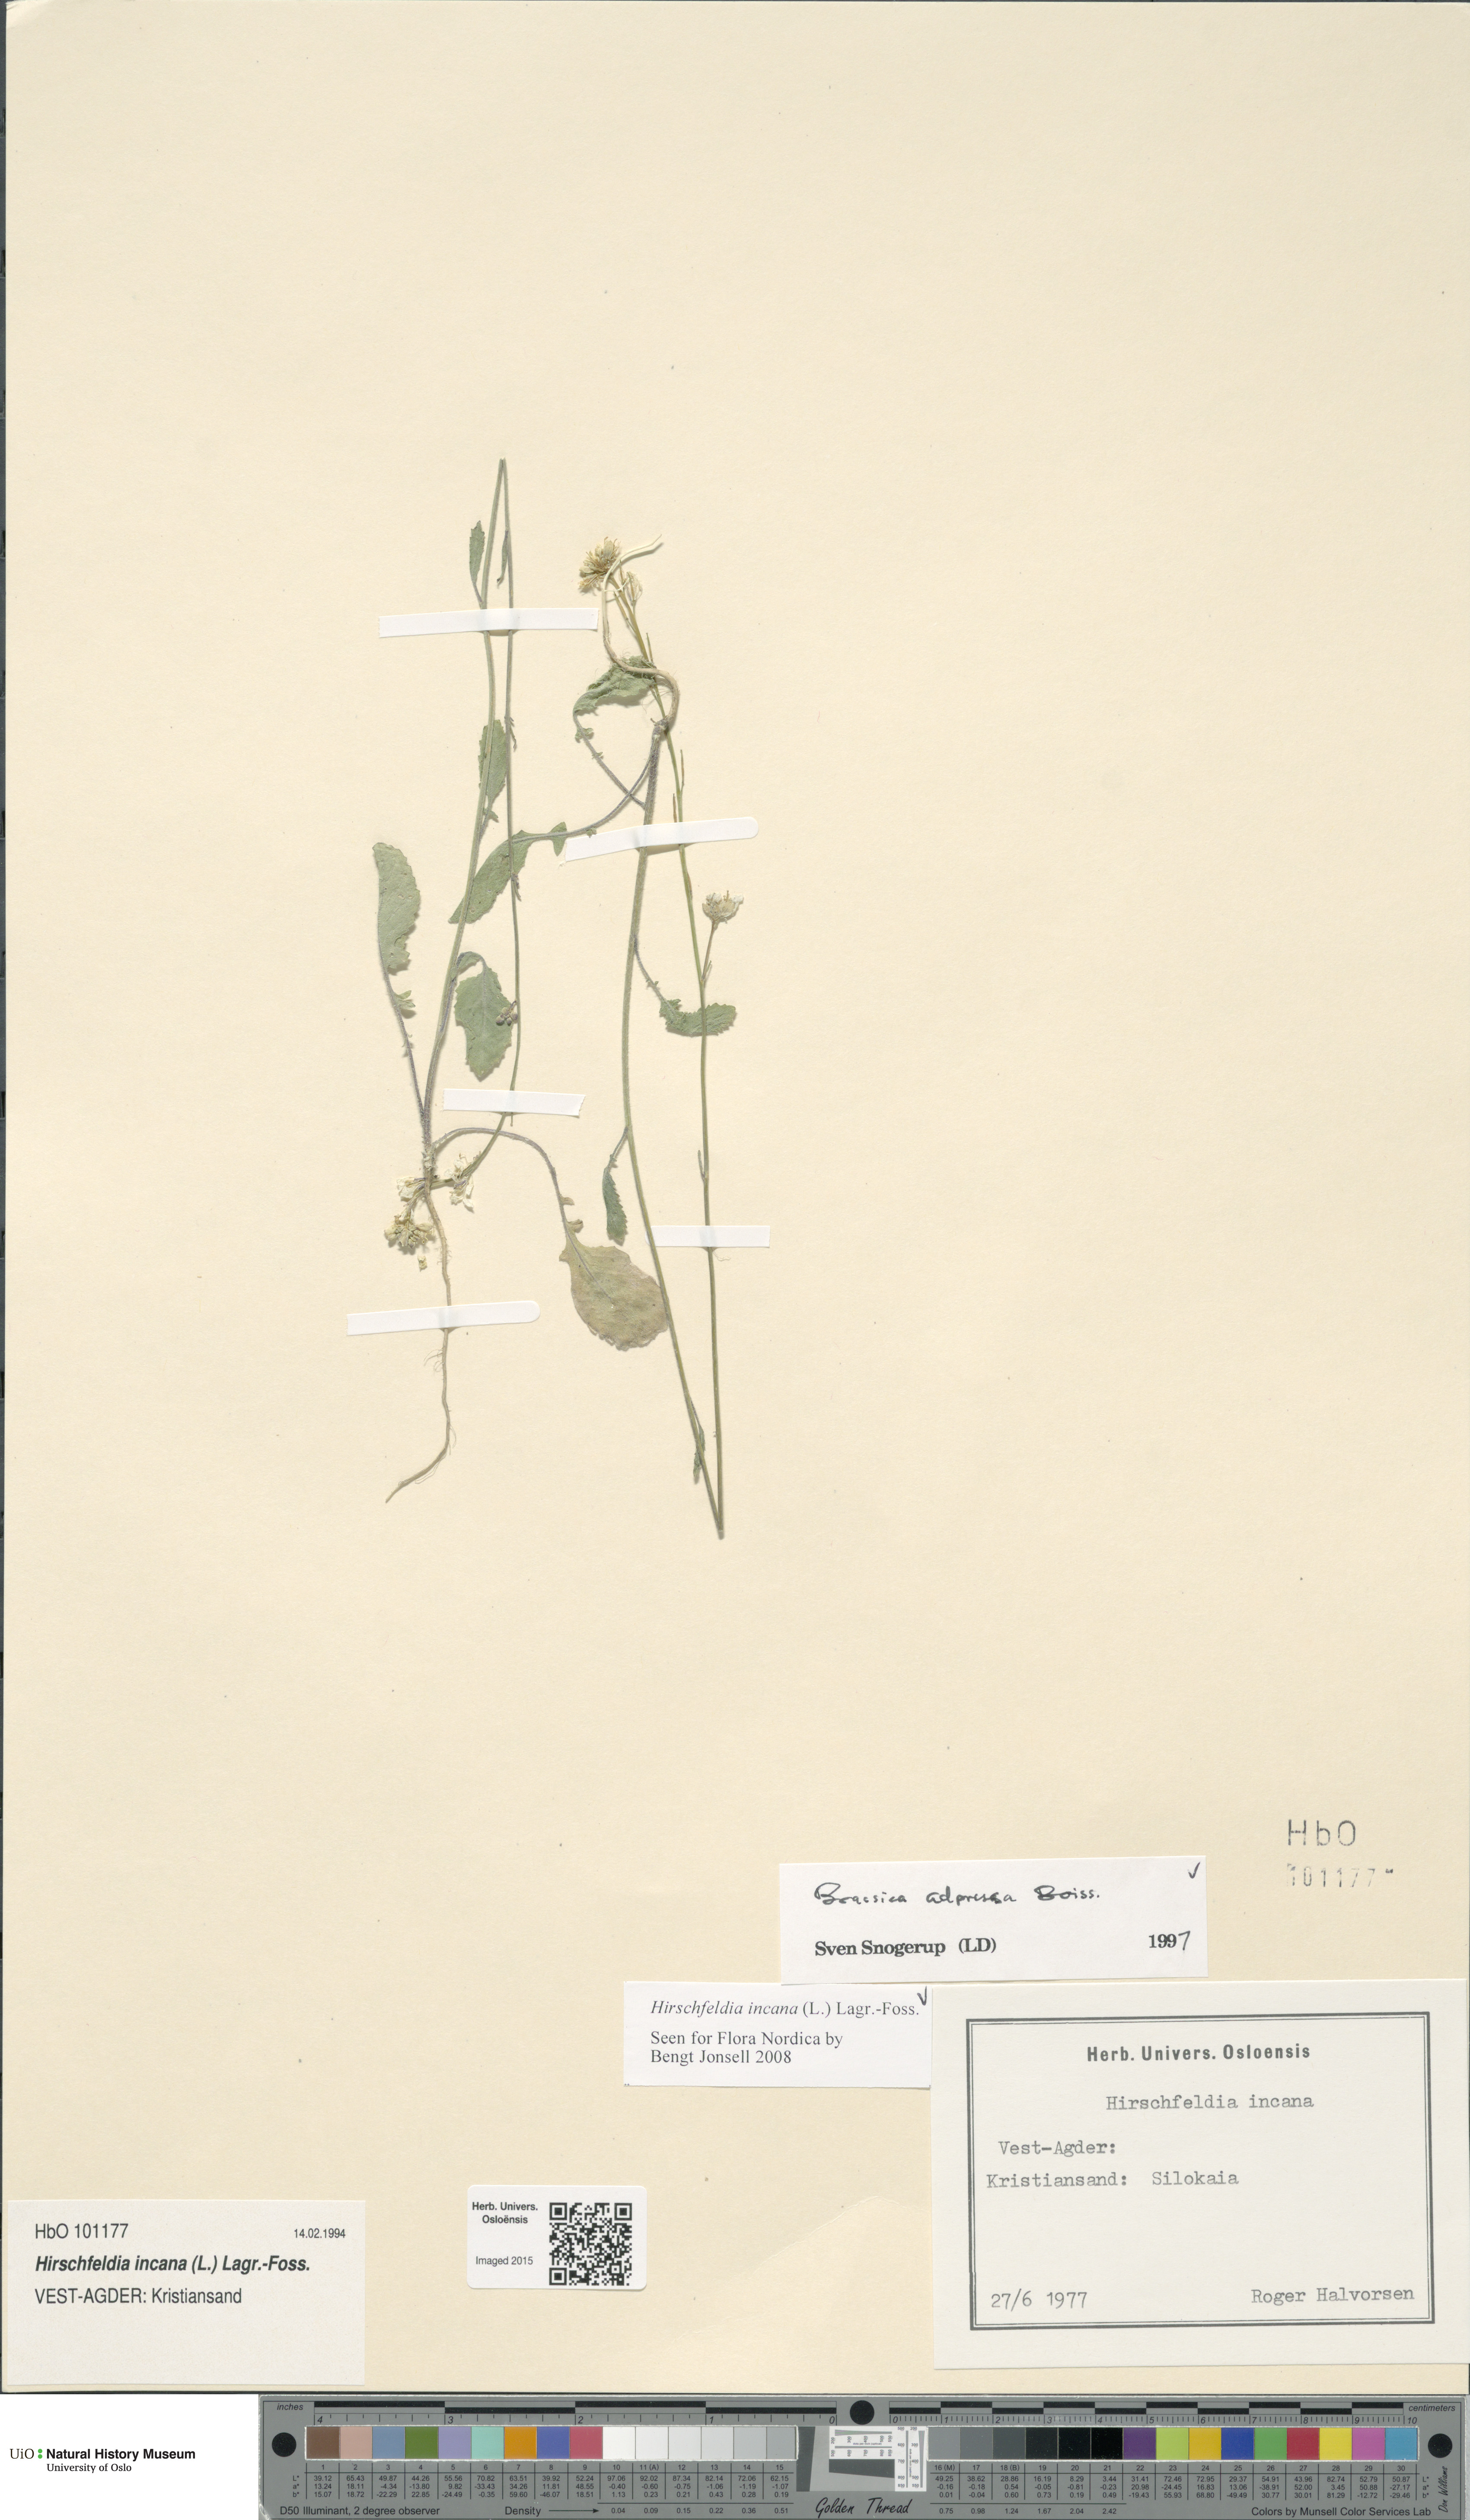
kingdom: Plantae
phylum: Tracheophyta
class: Magnoliopsida
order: Brassicales
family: Brassicaceae
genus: Hirschfeldia
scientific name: Hirschfeldia incana
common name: Hoary mustard
